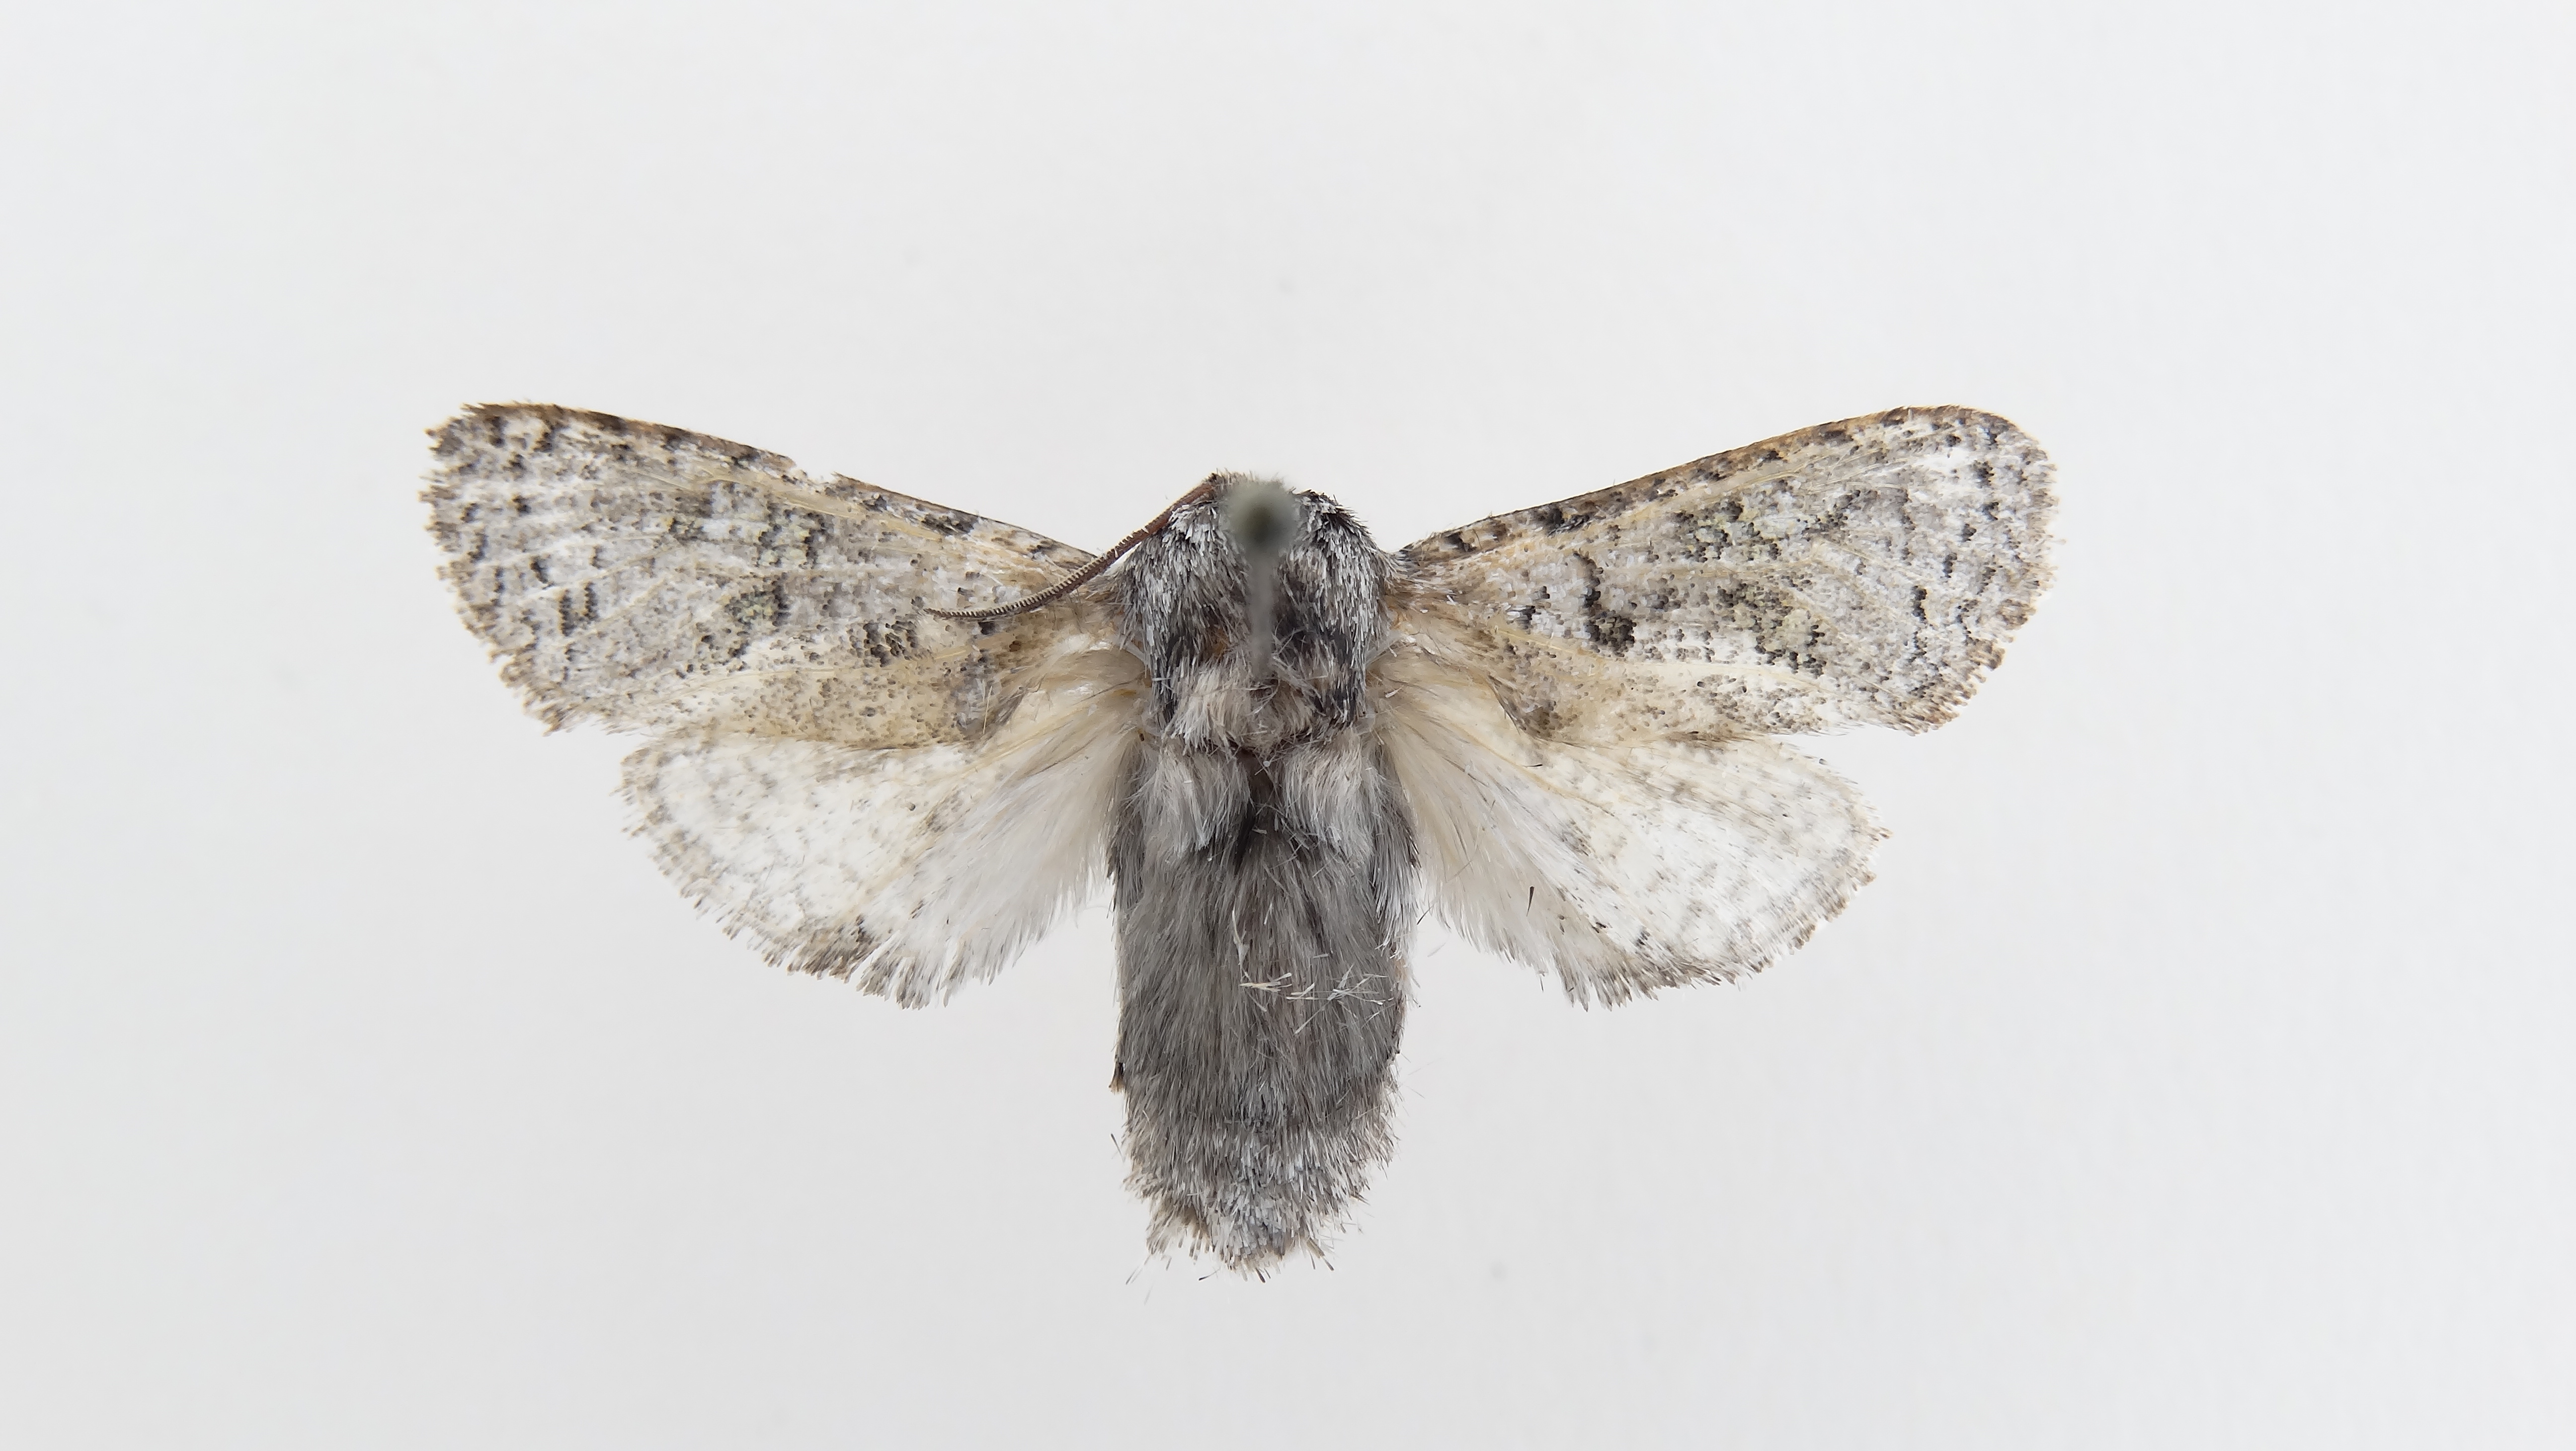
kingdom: Animalia
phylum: Arthropoda
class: Insecta
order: Lepidoptera
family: Cossidae
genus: Chilecomadia
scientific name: Chilecomadia valdiviana
